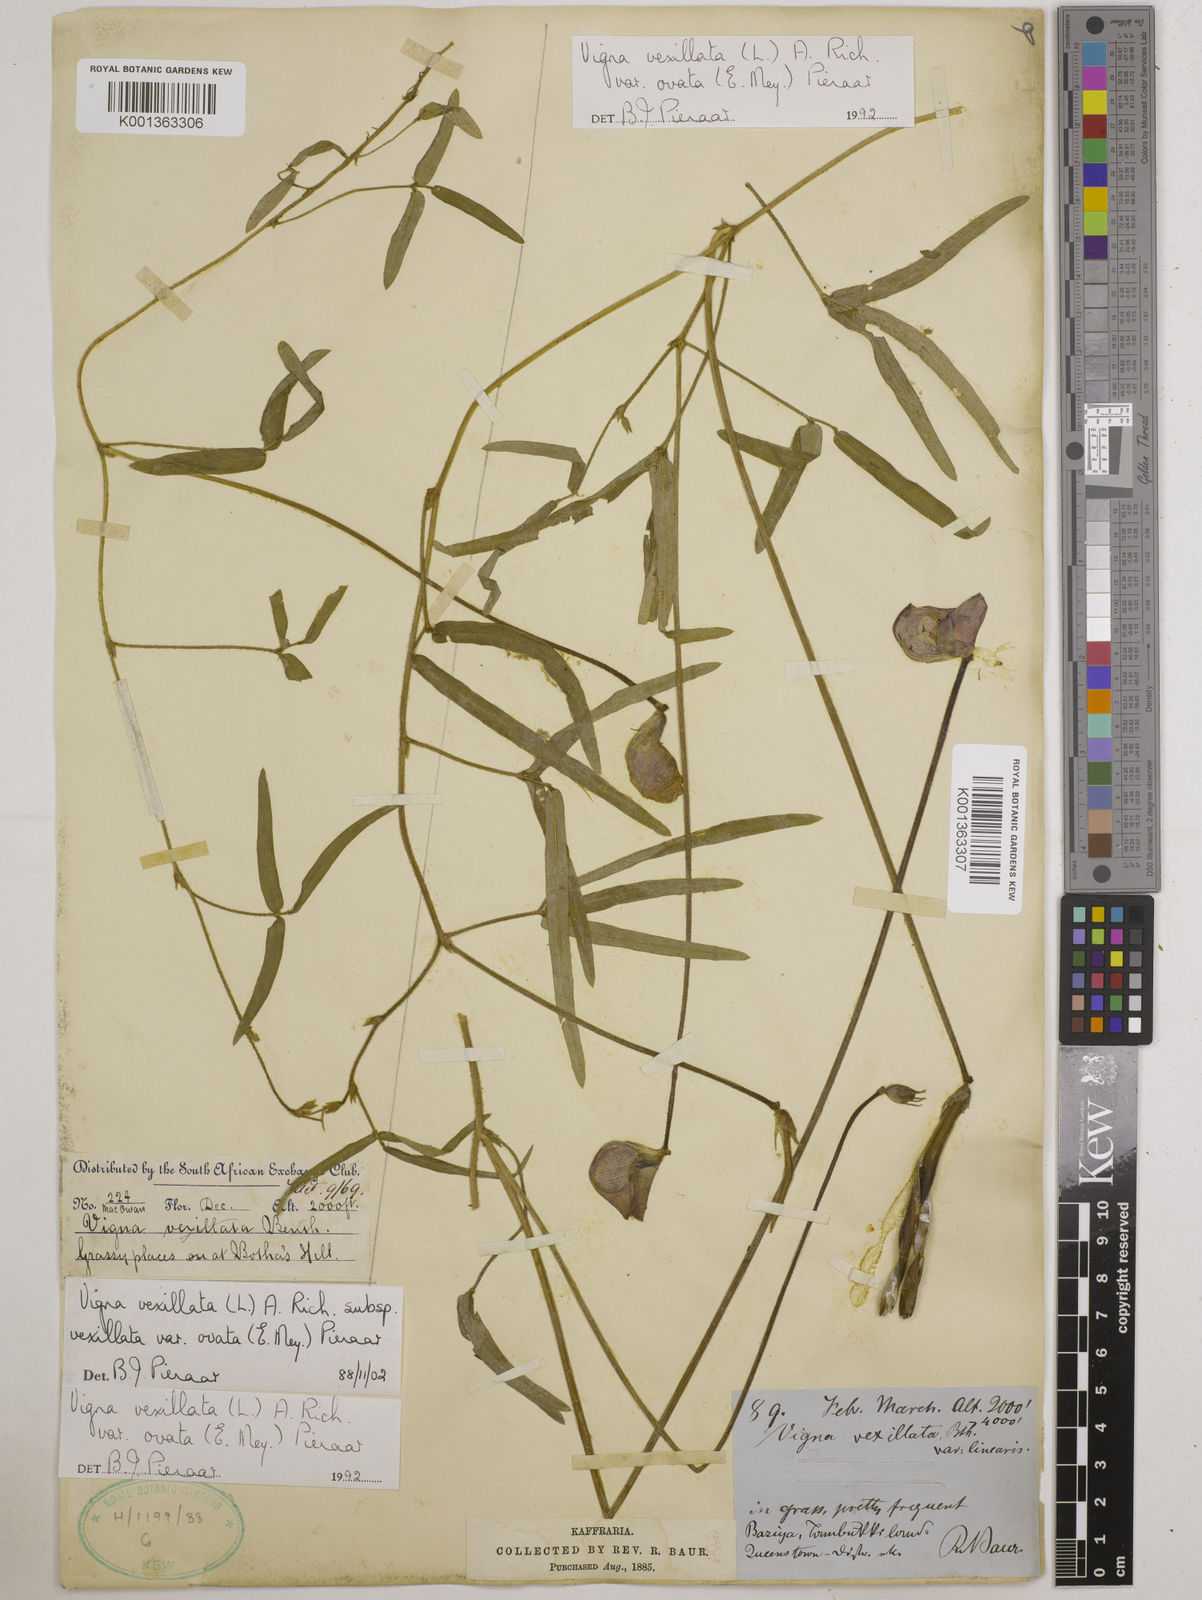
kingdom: Plantae
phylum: Tracheophyta
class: Magnoliopsida
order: Fabales
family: Fabaceae
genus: Vigna
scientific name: Vigna
